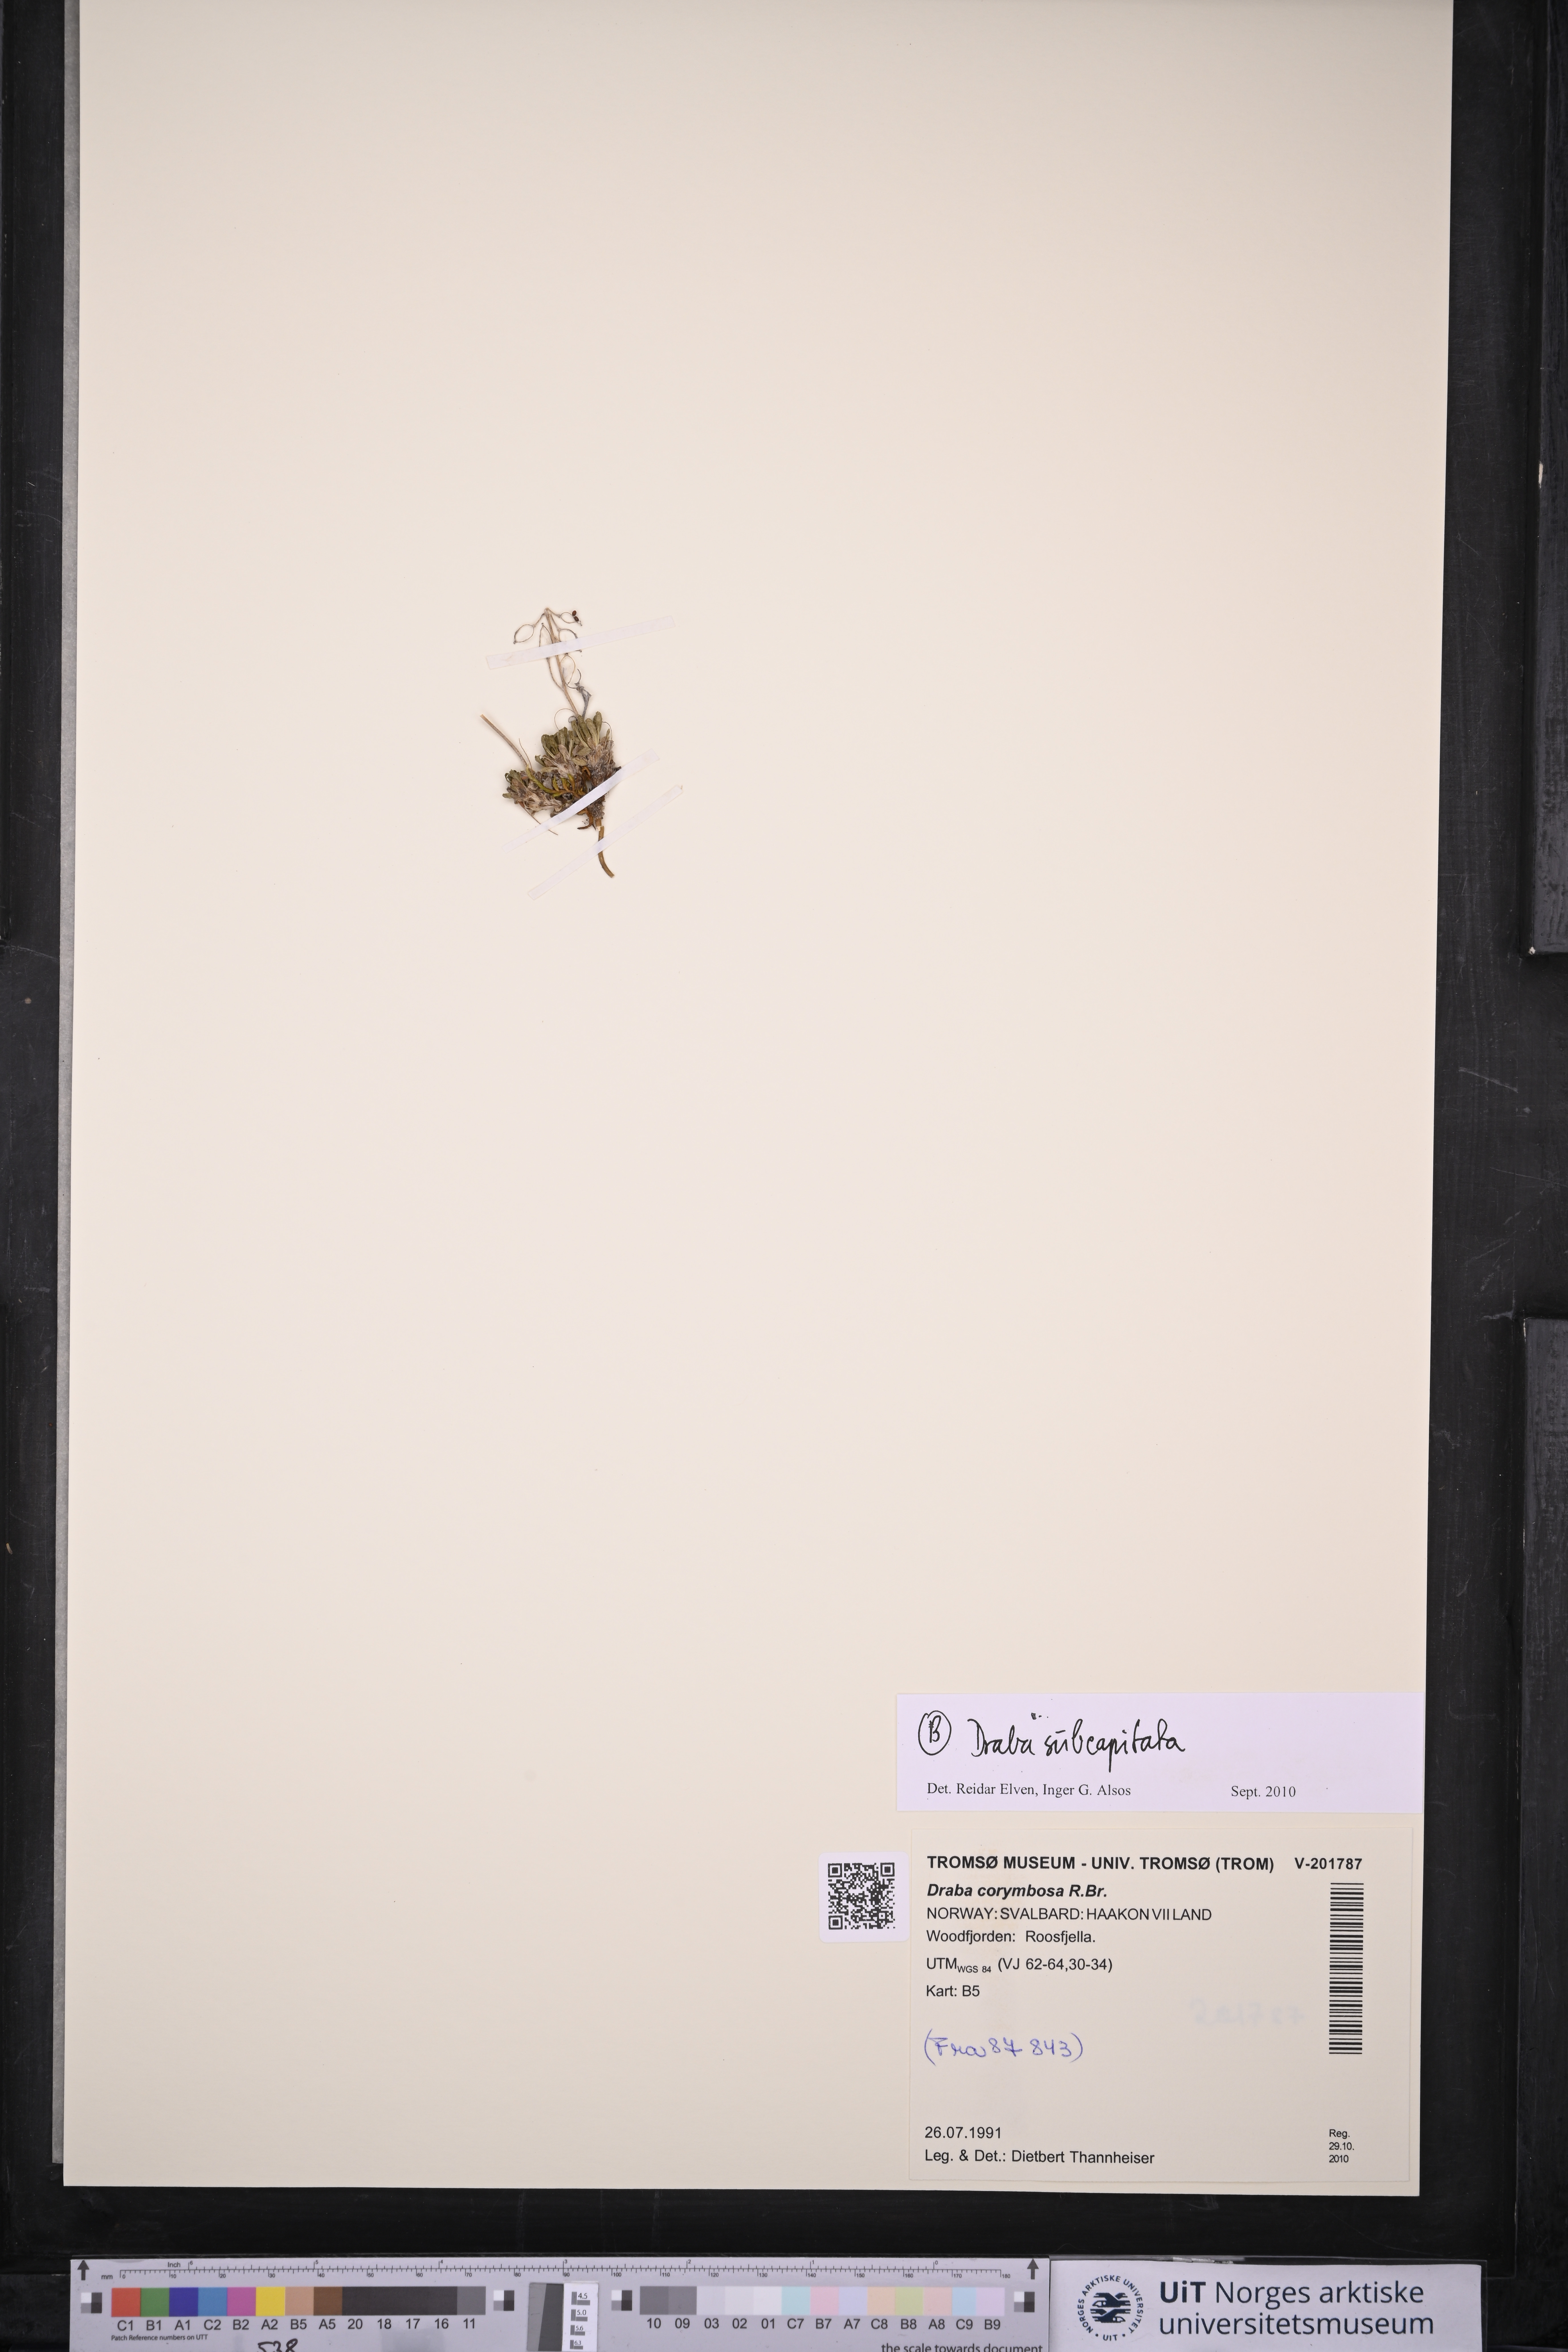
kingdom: Plantae
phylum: Tracheophyta
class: Magnoliopsida
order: Brassicales
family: Brassicaceae
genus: Draba
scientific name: Draba subcapitata
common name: Ellesmere island draba
